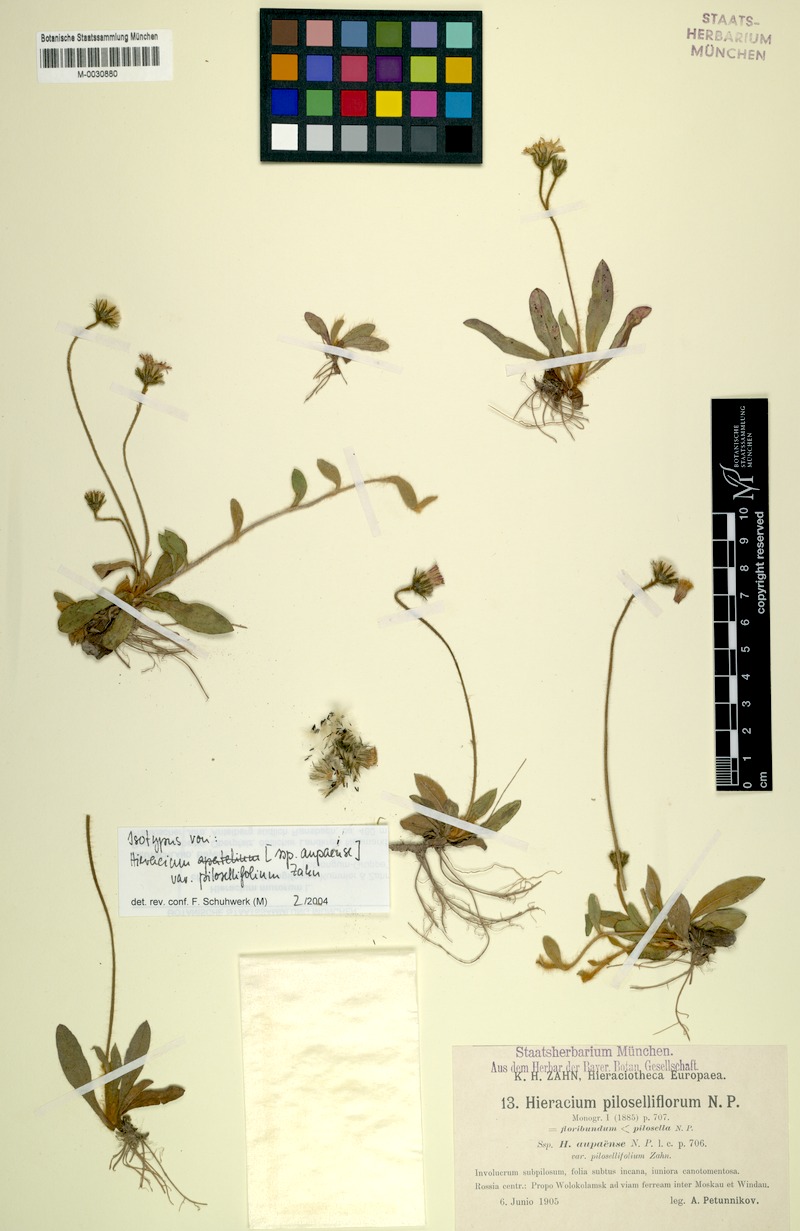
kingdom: Plantae
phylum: Tracheophyta
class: Magnoliopsida
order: Asterales
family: Asteraceae
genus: Pilosella
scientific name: Pilosella apatelia
